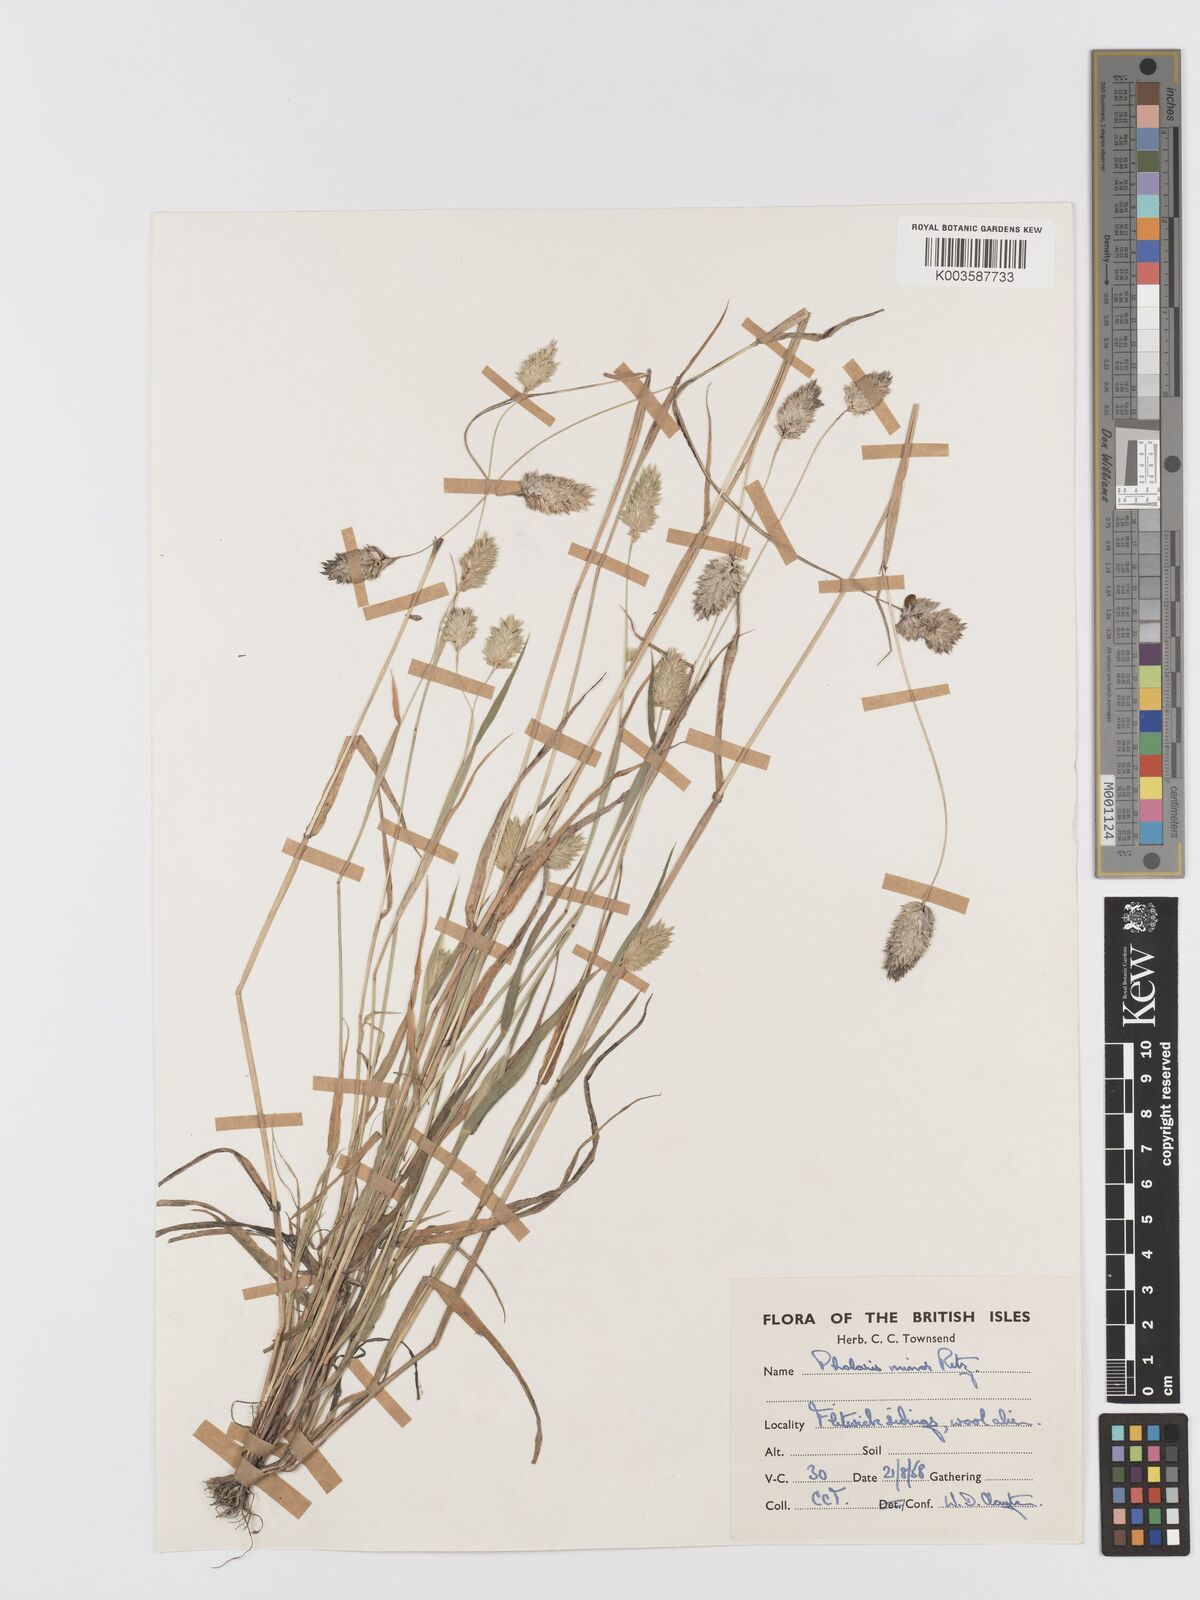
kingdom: Plantae
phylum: Tracheophyta
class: Liliopsida
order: Poales
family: Poaceae
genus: Phalaris
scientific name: Phalaris minor
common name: Littleseed canarygrass
